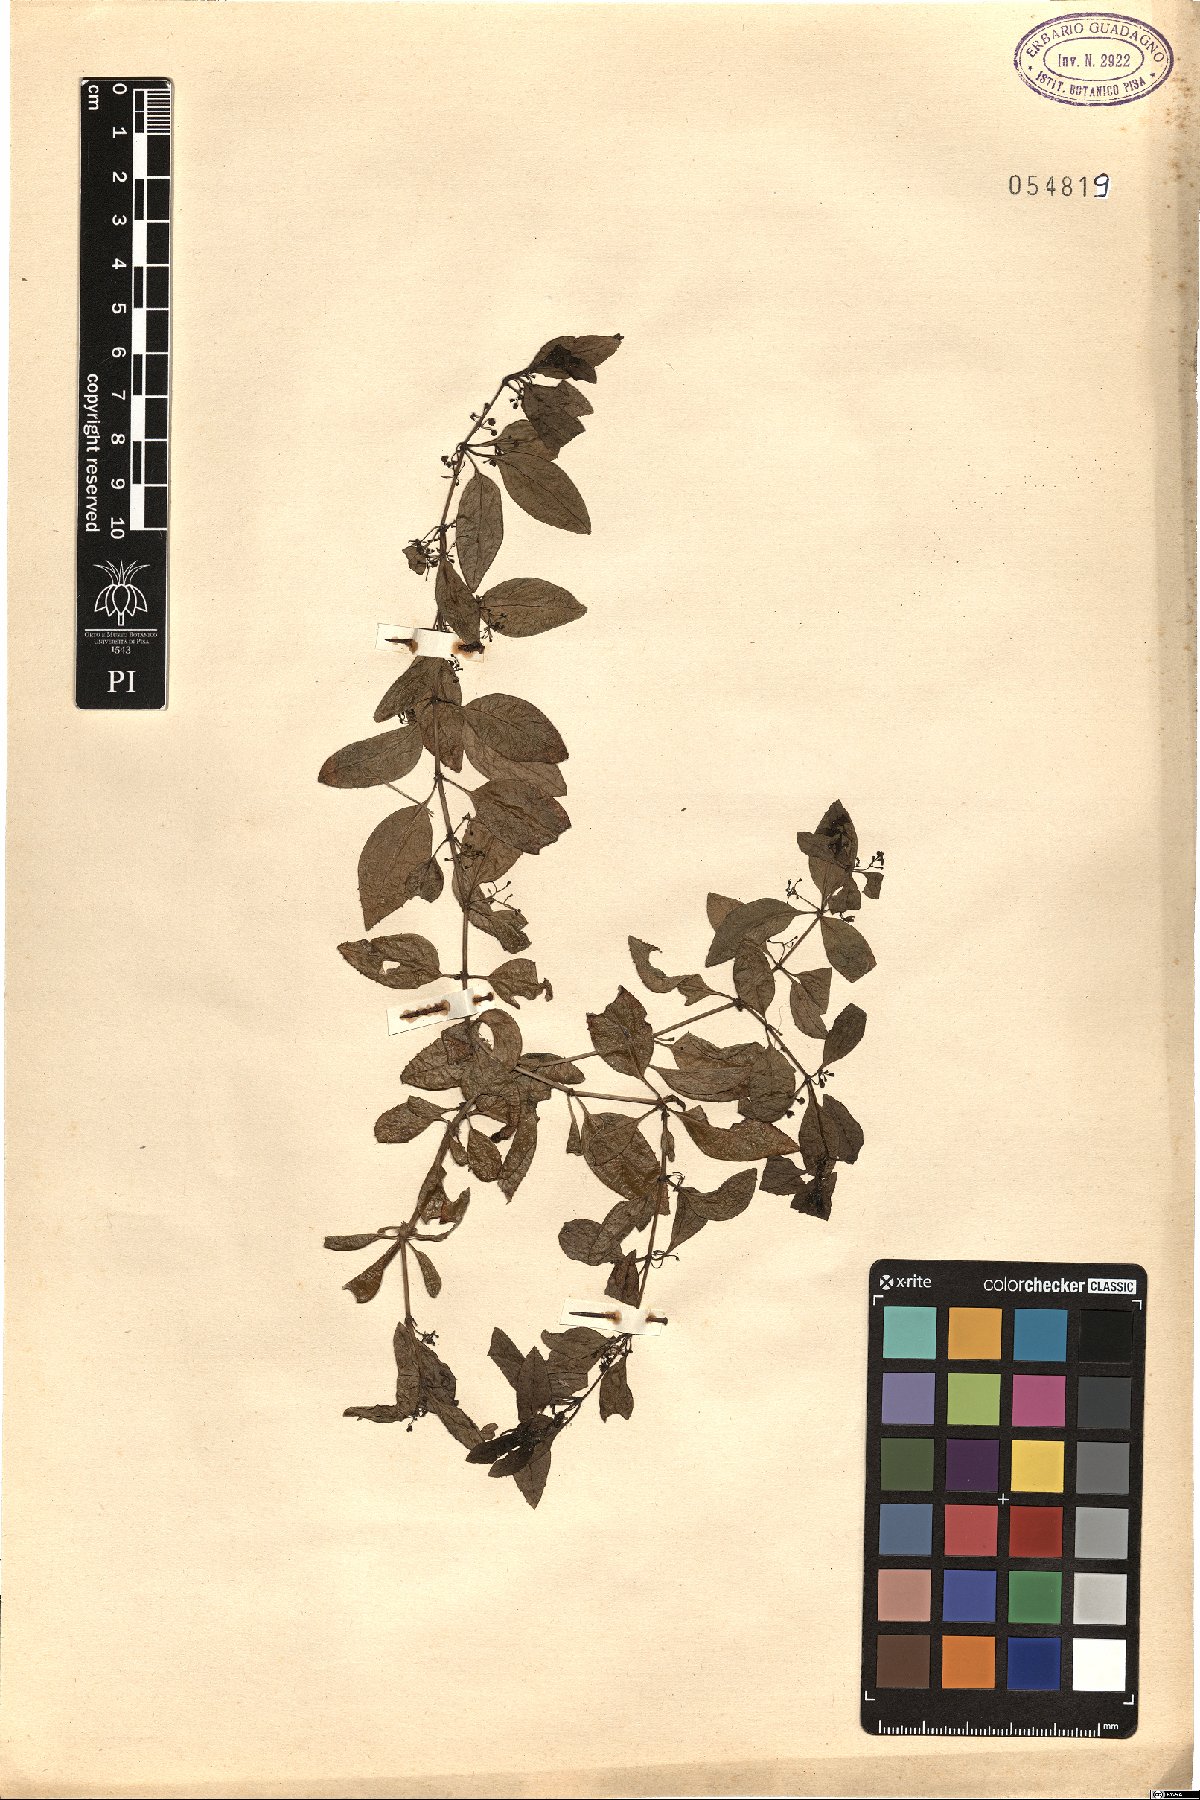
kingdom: Plantae
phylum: Tracheophyta
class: Magnoliopsida
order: Gentianales
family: Rubiaceae
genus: Rubia
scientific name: Rubia fruticosa
